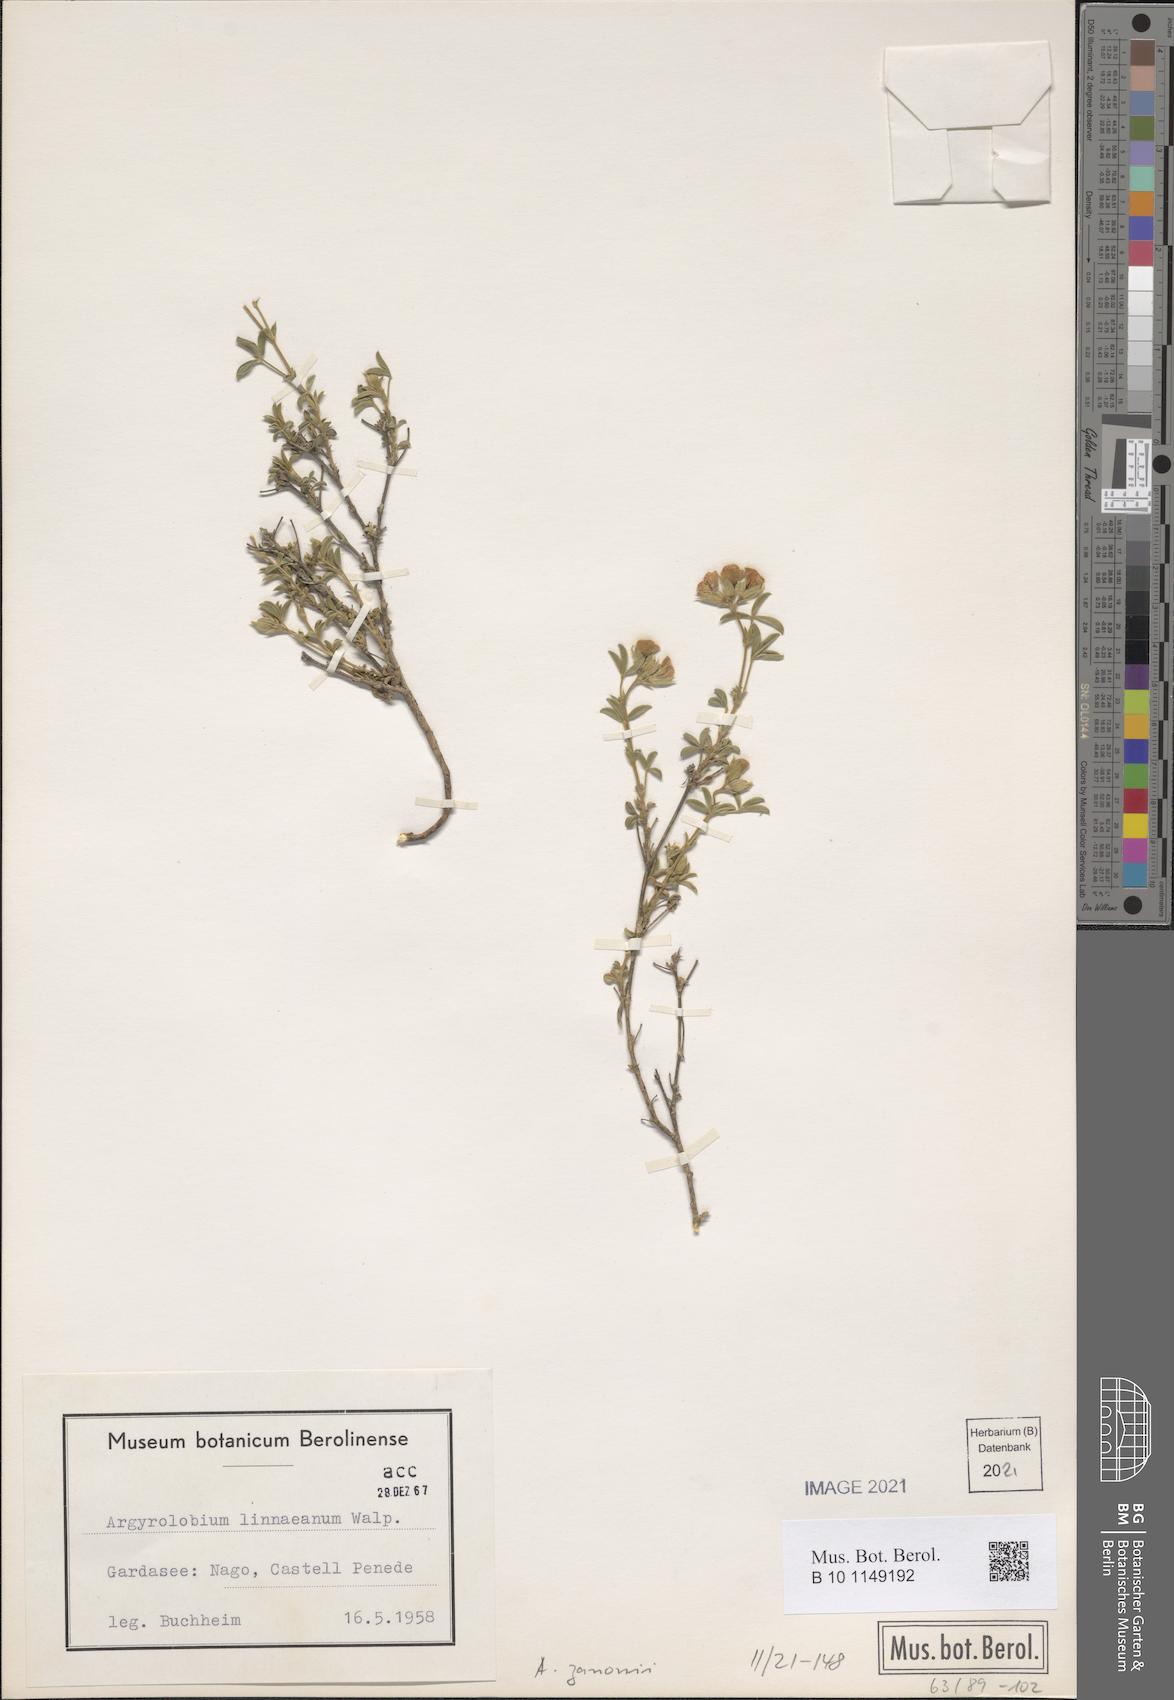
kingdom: Plantae
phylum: Tracheophyta
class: Magnoliopsida
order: Fabales
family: Fabaceae
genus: Argyrolobium
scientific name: Argyrolobium zanonii
